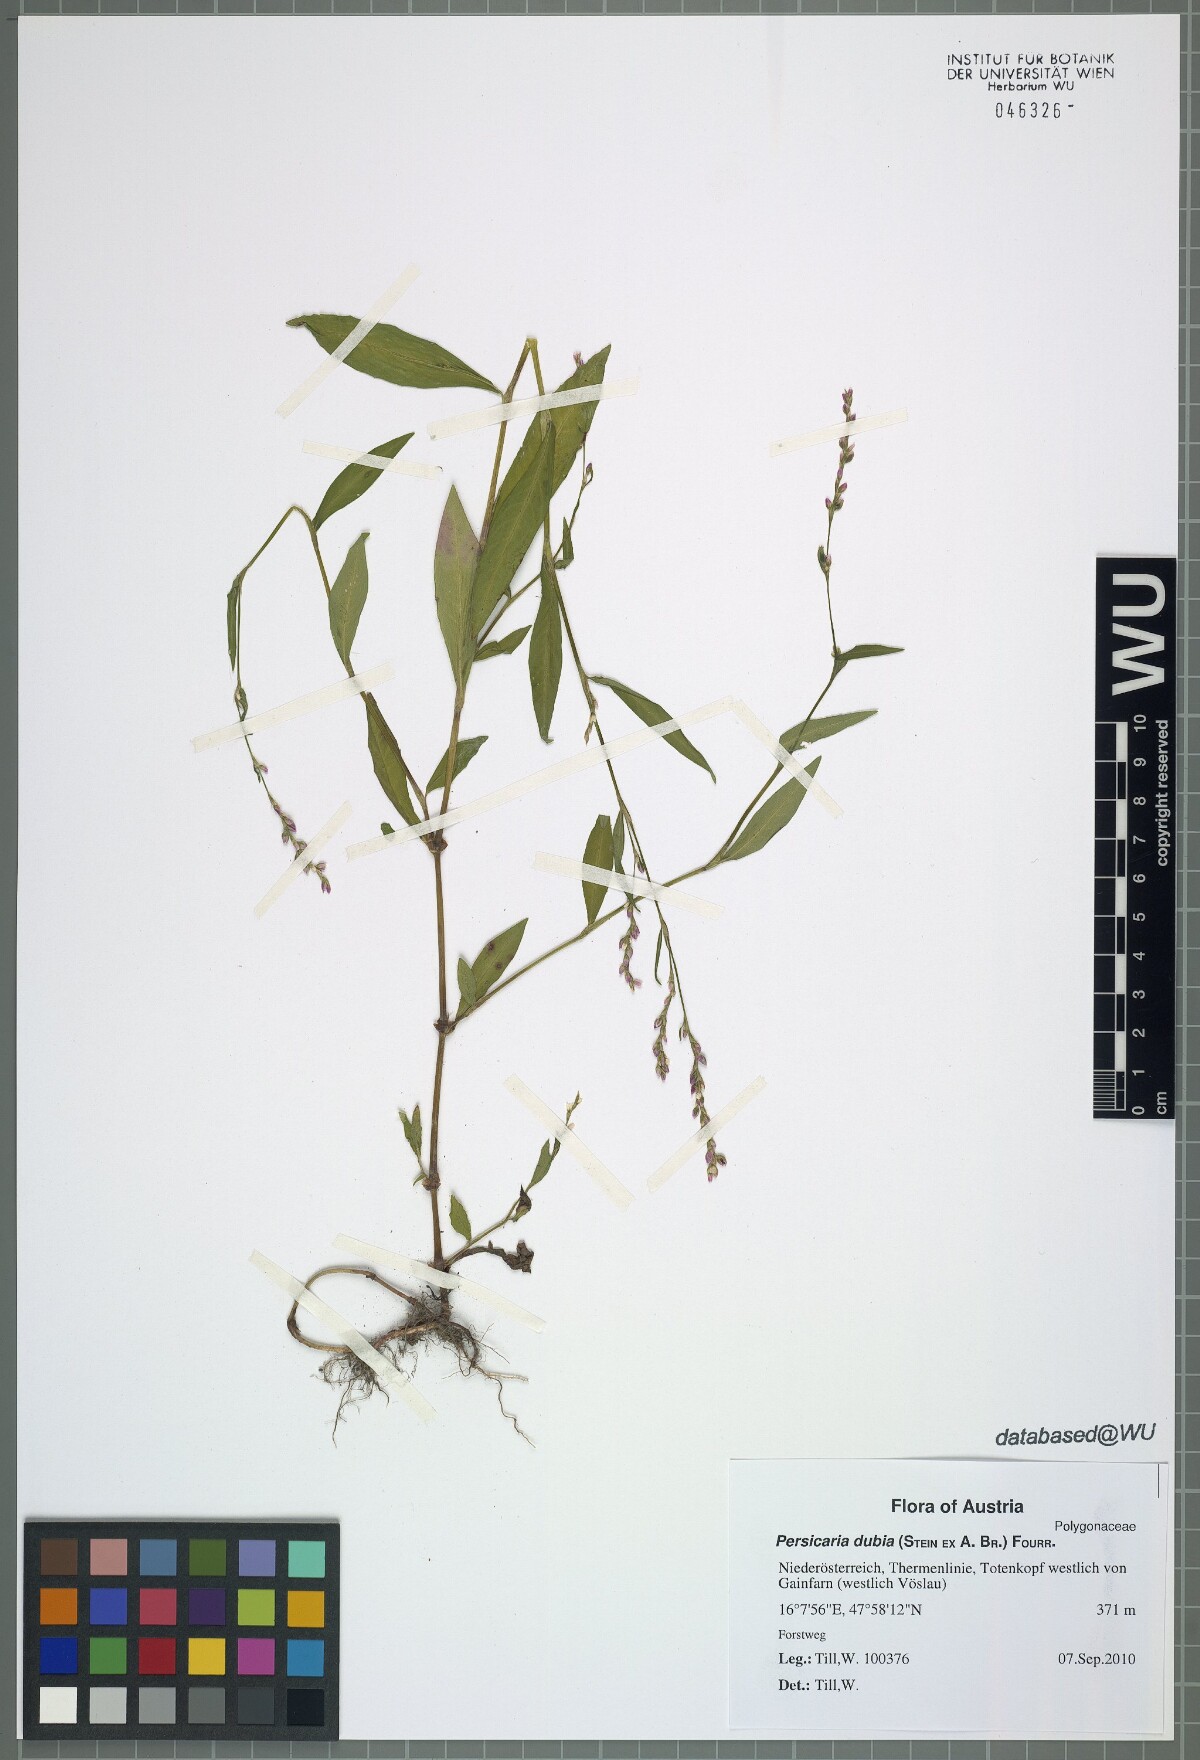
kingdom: Plantae
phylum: Tracheophyta
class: Magnoliopsida
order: Caryophyllales
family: Polygonaceae
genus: Persicaria
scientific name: Persicaria mitis
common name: Tasteless water-pepper
